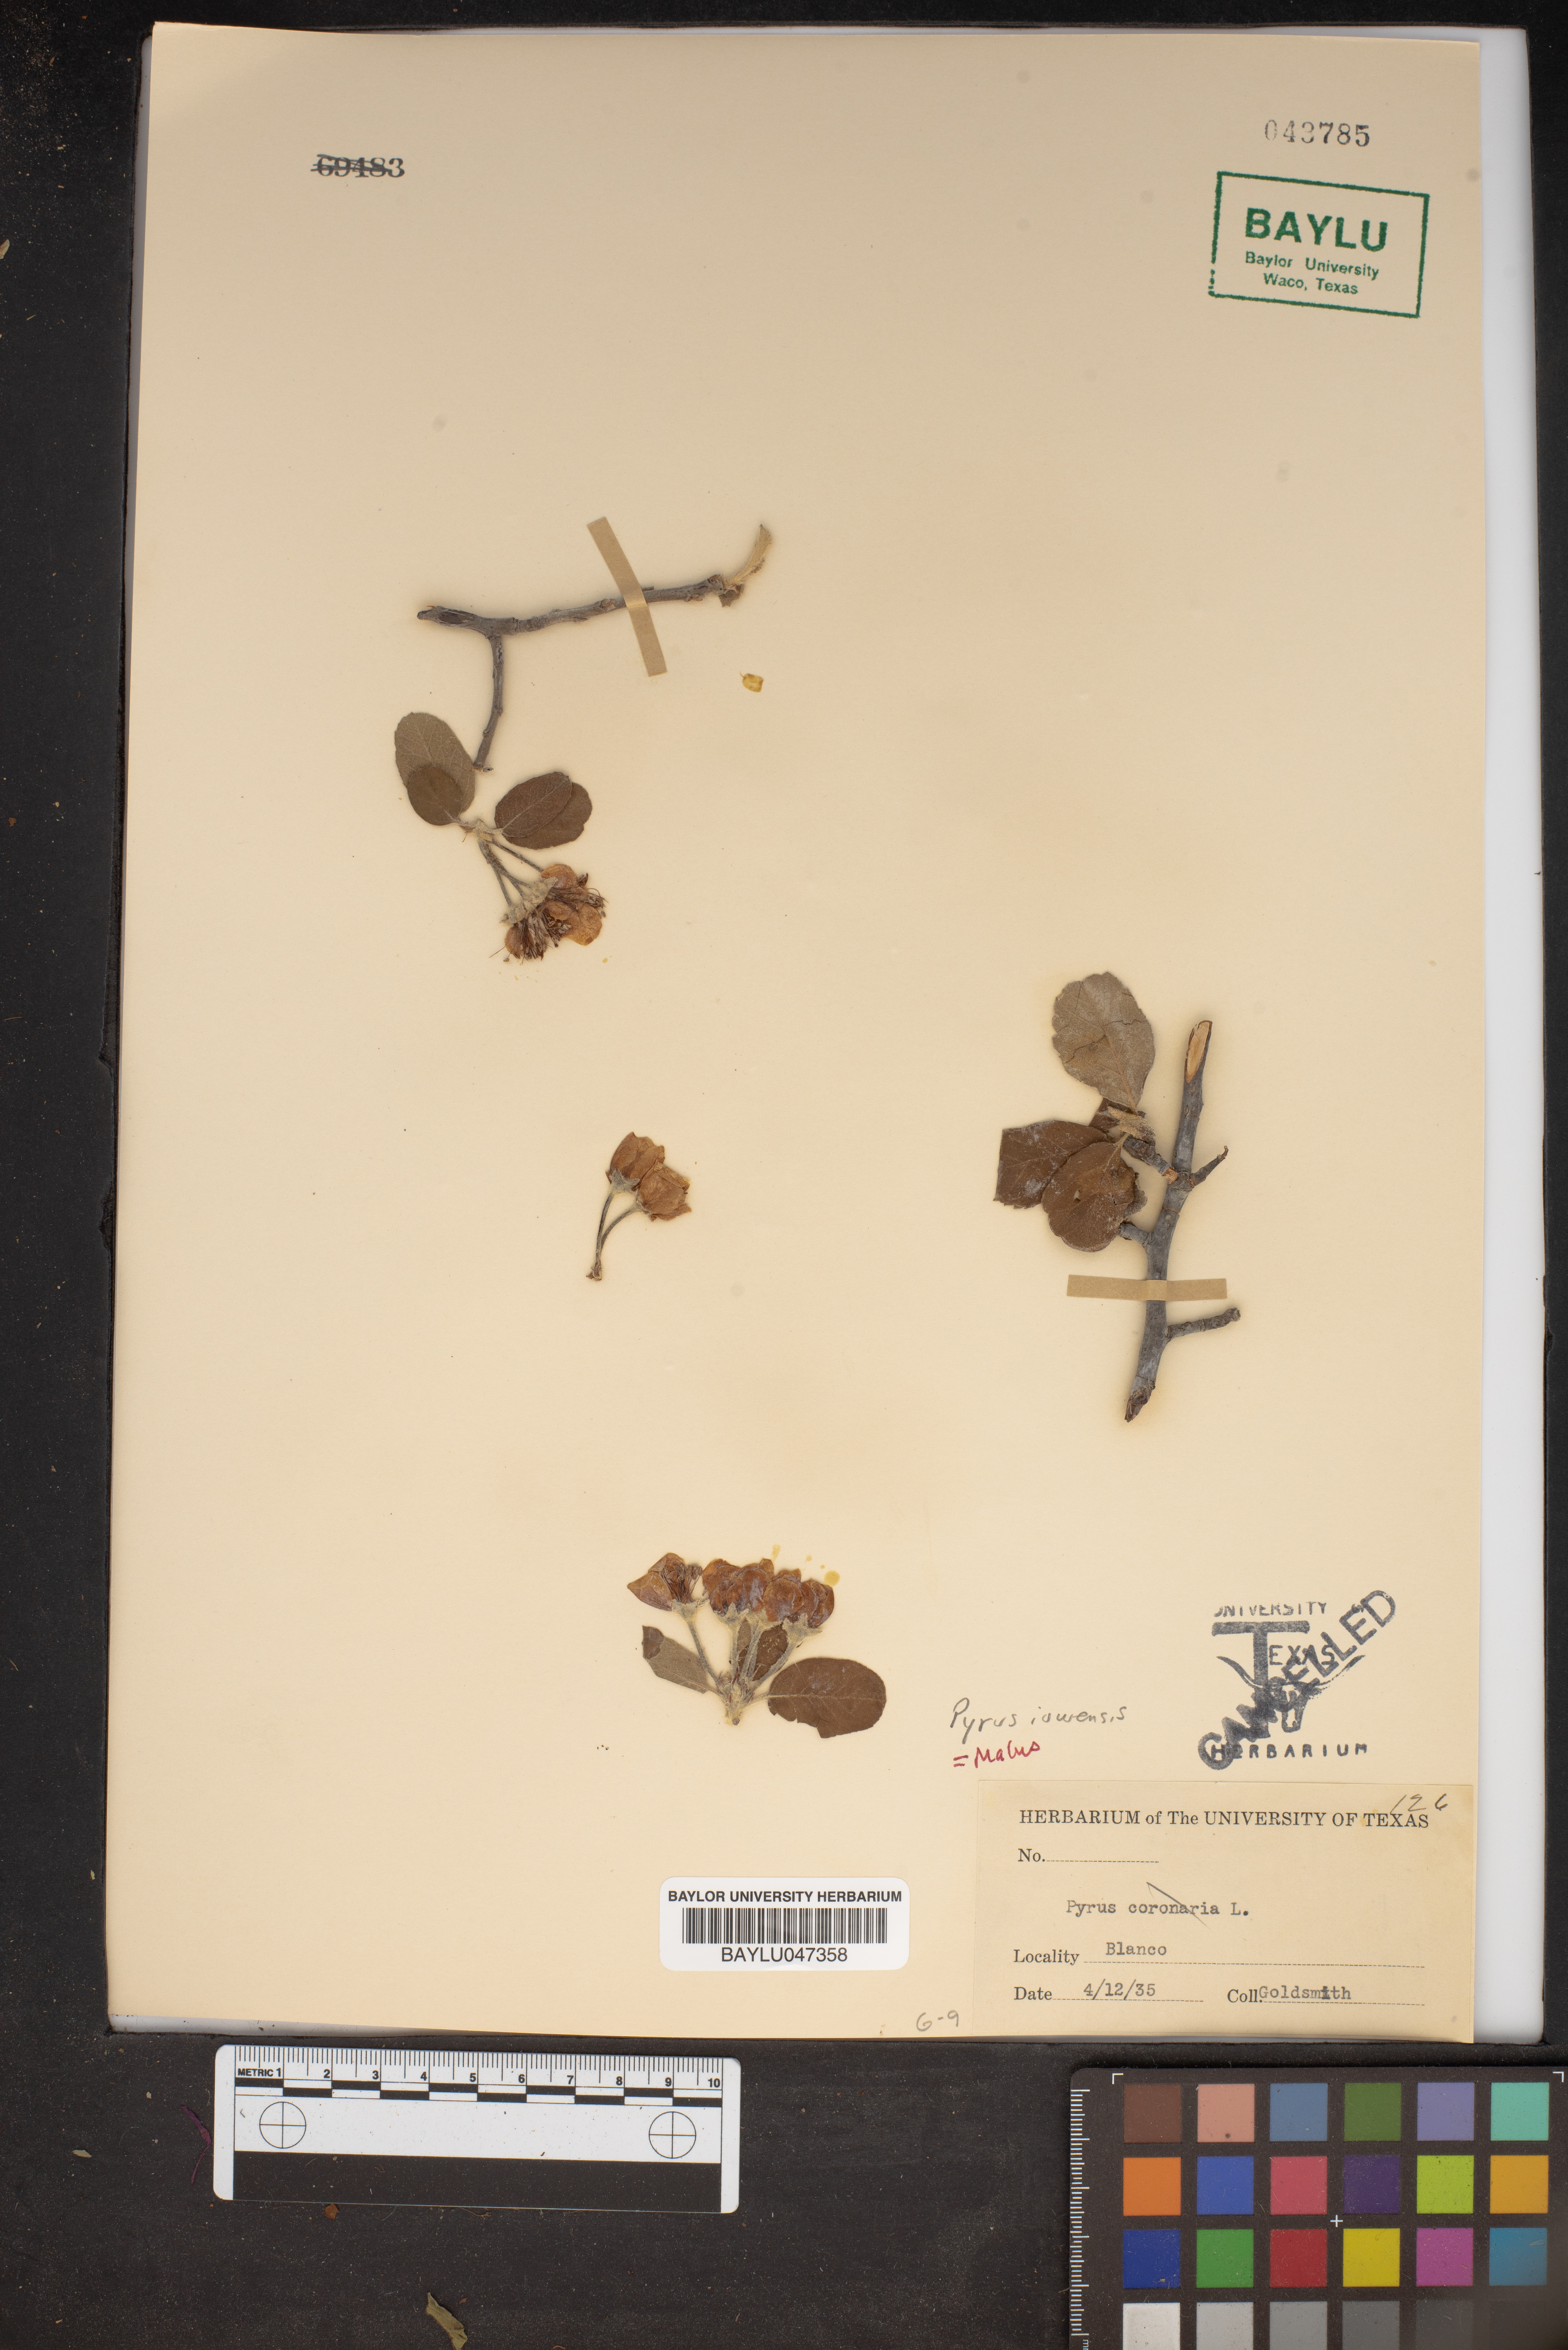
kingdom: Plantae
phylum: Tracheophyta
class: Magnoliopsida
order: Rosales
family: Rosaceae
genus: Malus
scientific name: Malus coronaria
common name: Sweet crab apple
